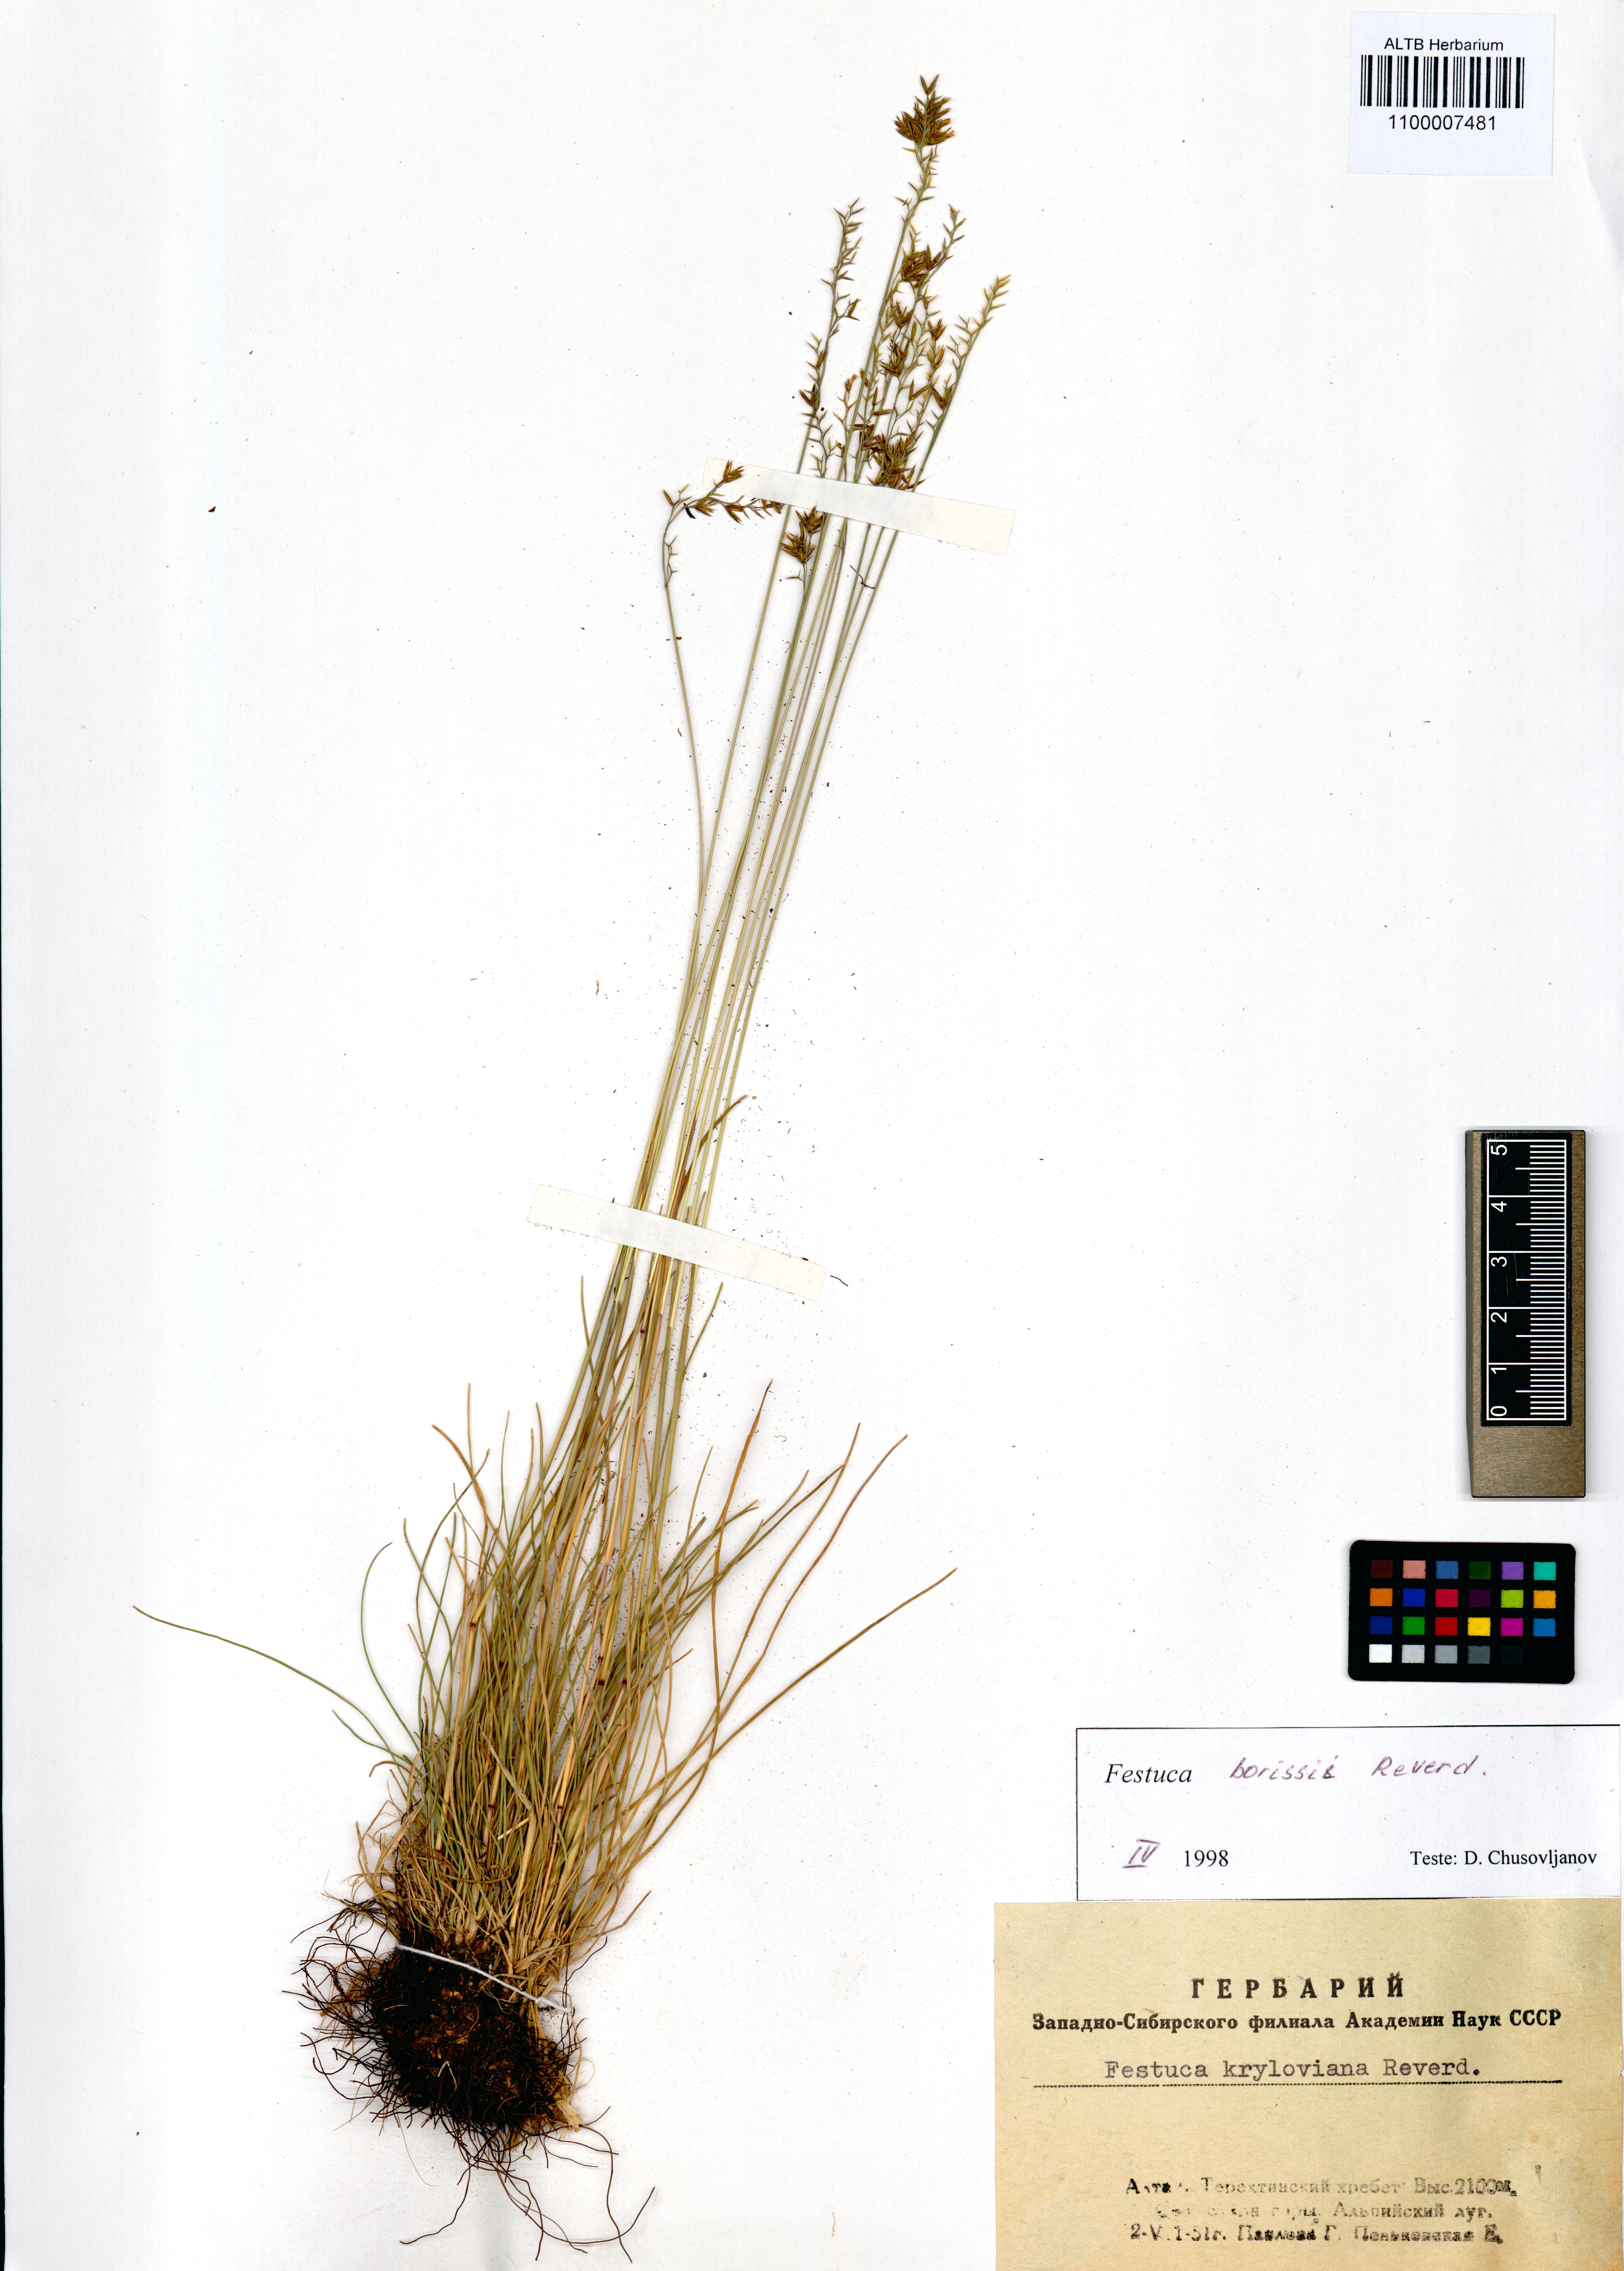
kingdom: Plantae
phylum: Tracheophyta
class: Liliopsida
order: Poales
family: Poaceae
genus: Festuca
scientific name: Festuca borissii
